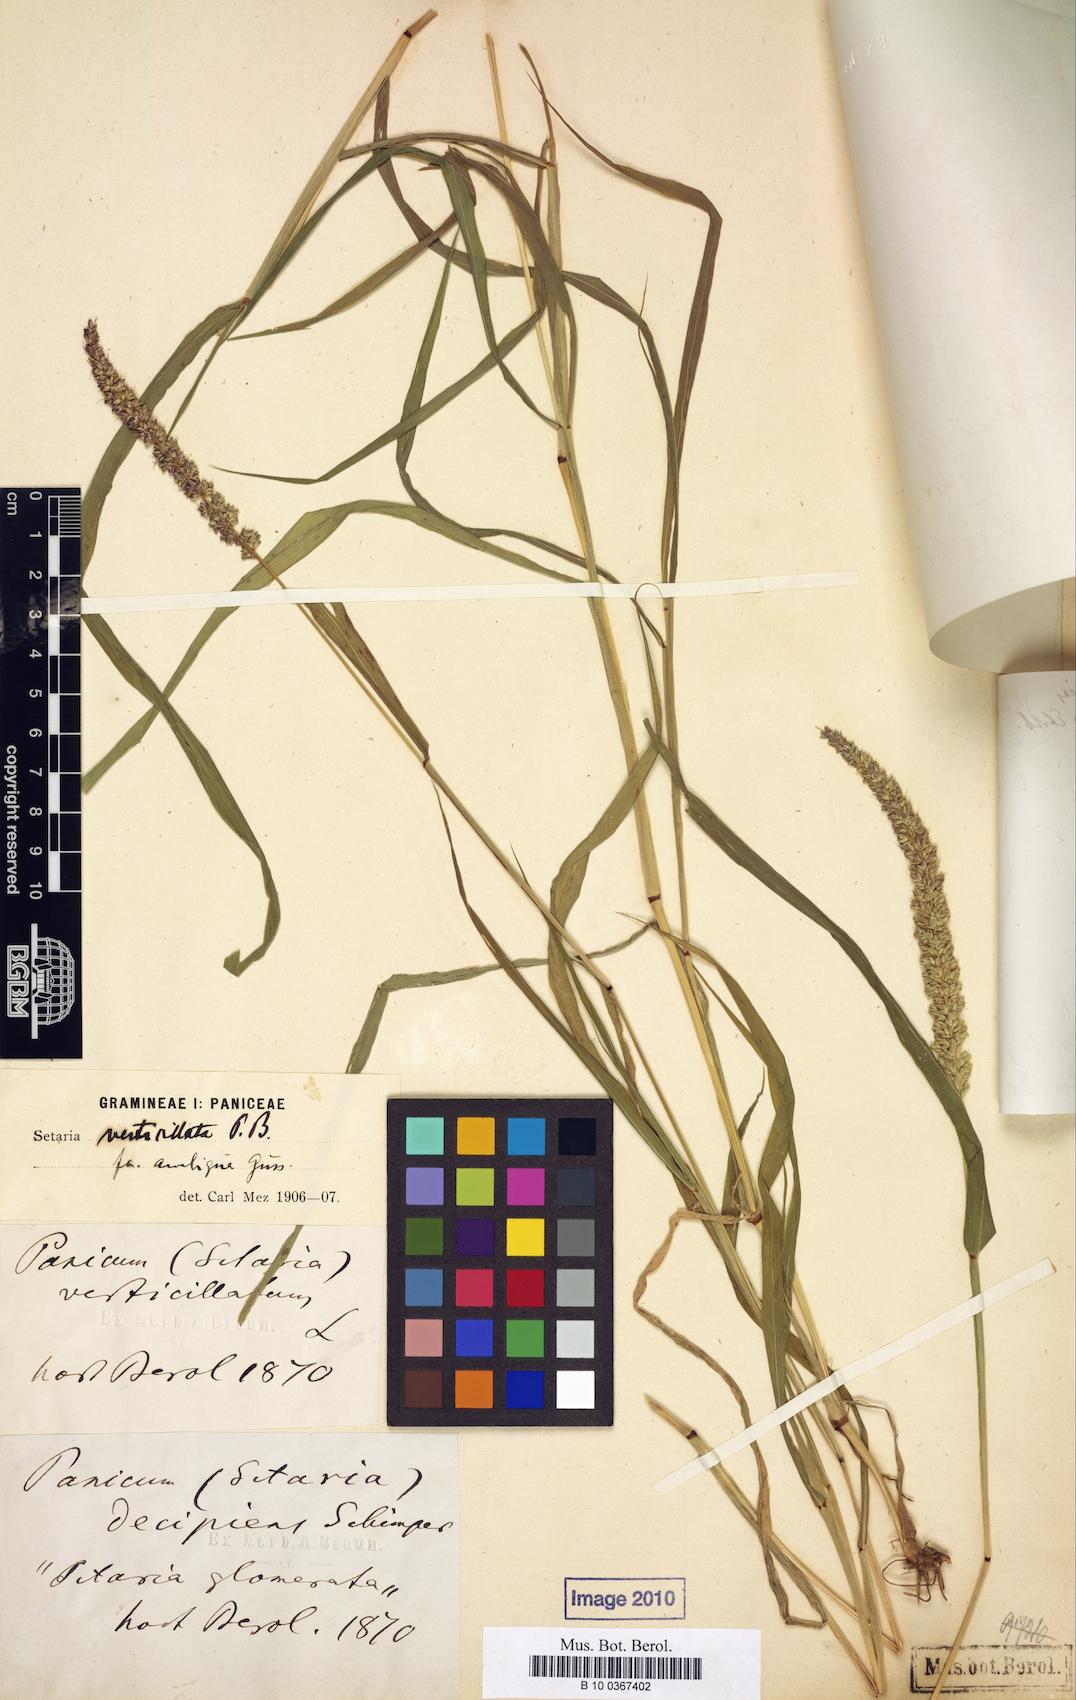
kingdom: Plantae
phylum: Tracheophyta
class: Liliopsida
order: Poales
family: Poaceae
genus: Setaria
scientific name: Setaria verticillata
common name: Hooked bristlegrass
